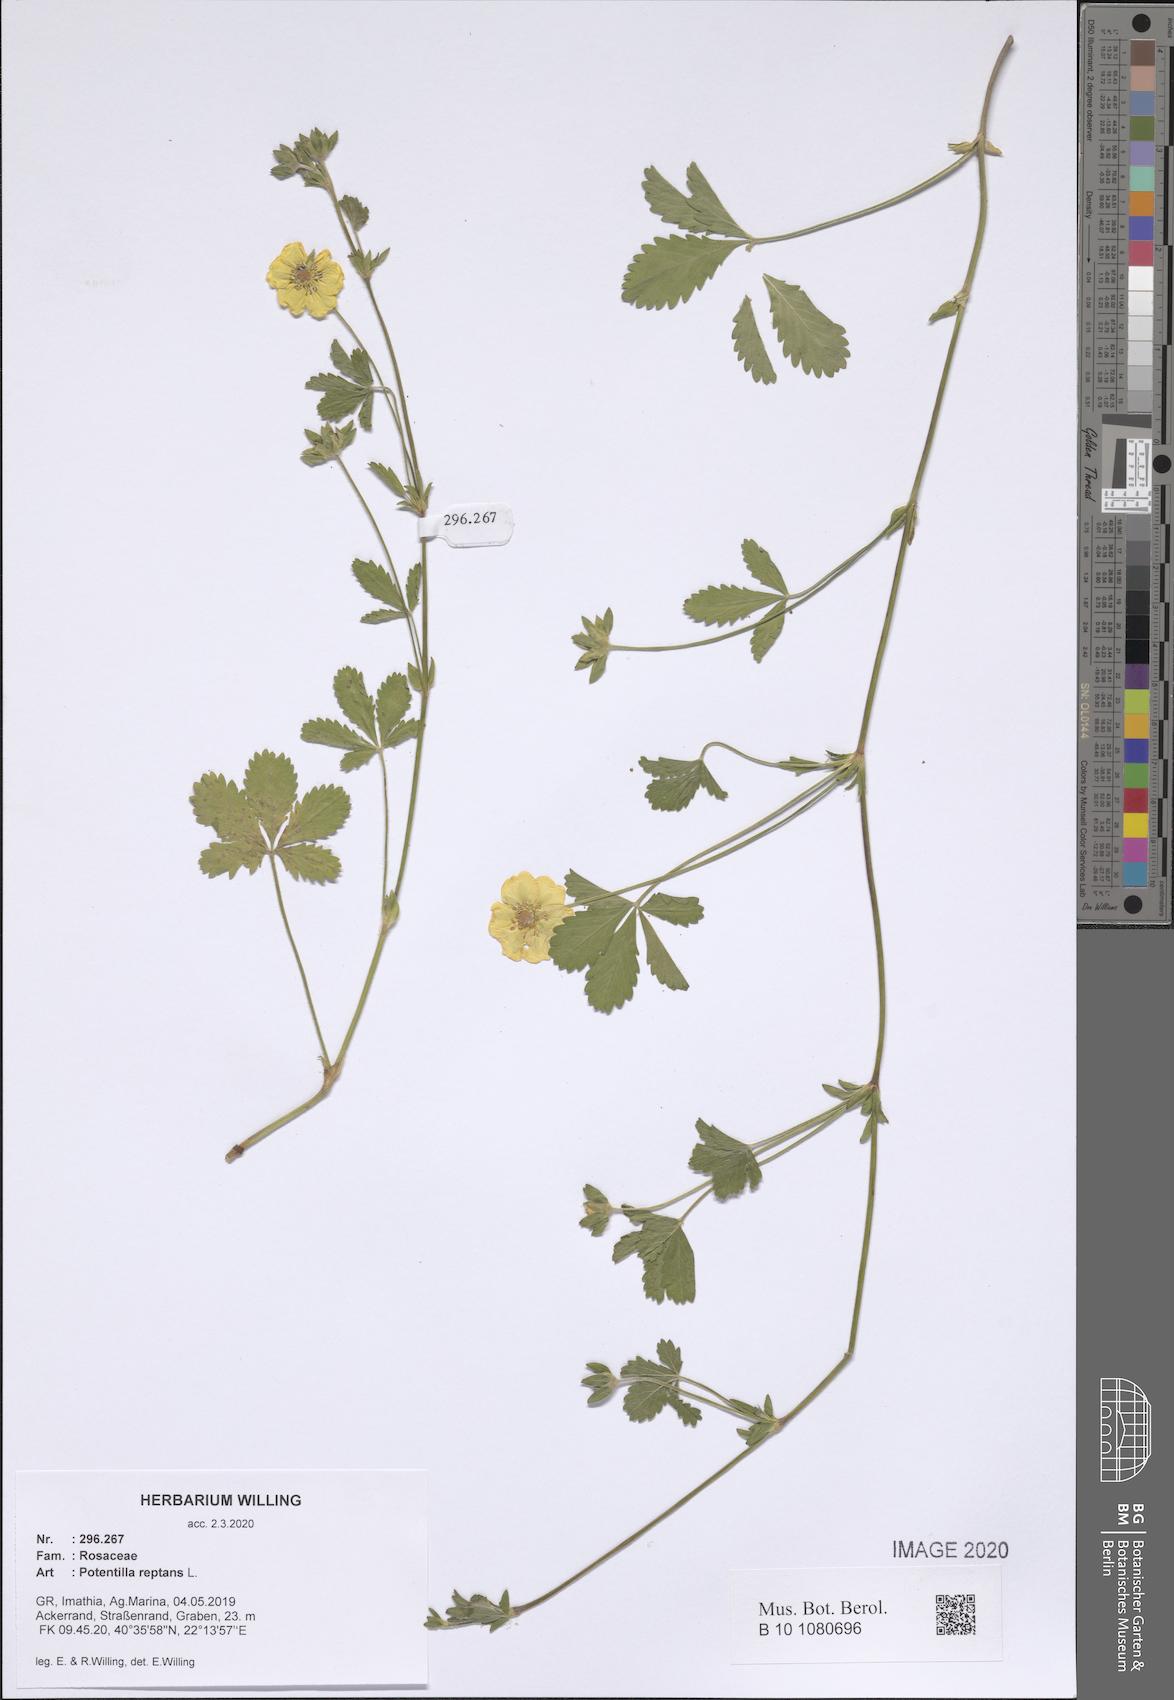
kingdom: Plantae
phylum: Tracheophyta
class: Magnoliopsida
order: Rosales
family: Rosaceae
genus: Potentilla
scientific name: Potentilla reptans
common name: Creeping cinquefoil
